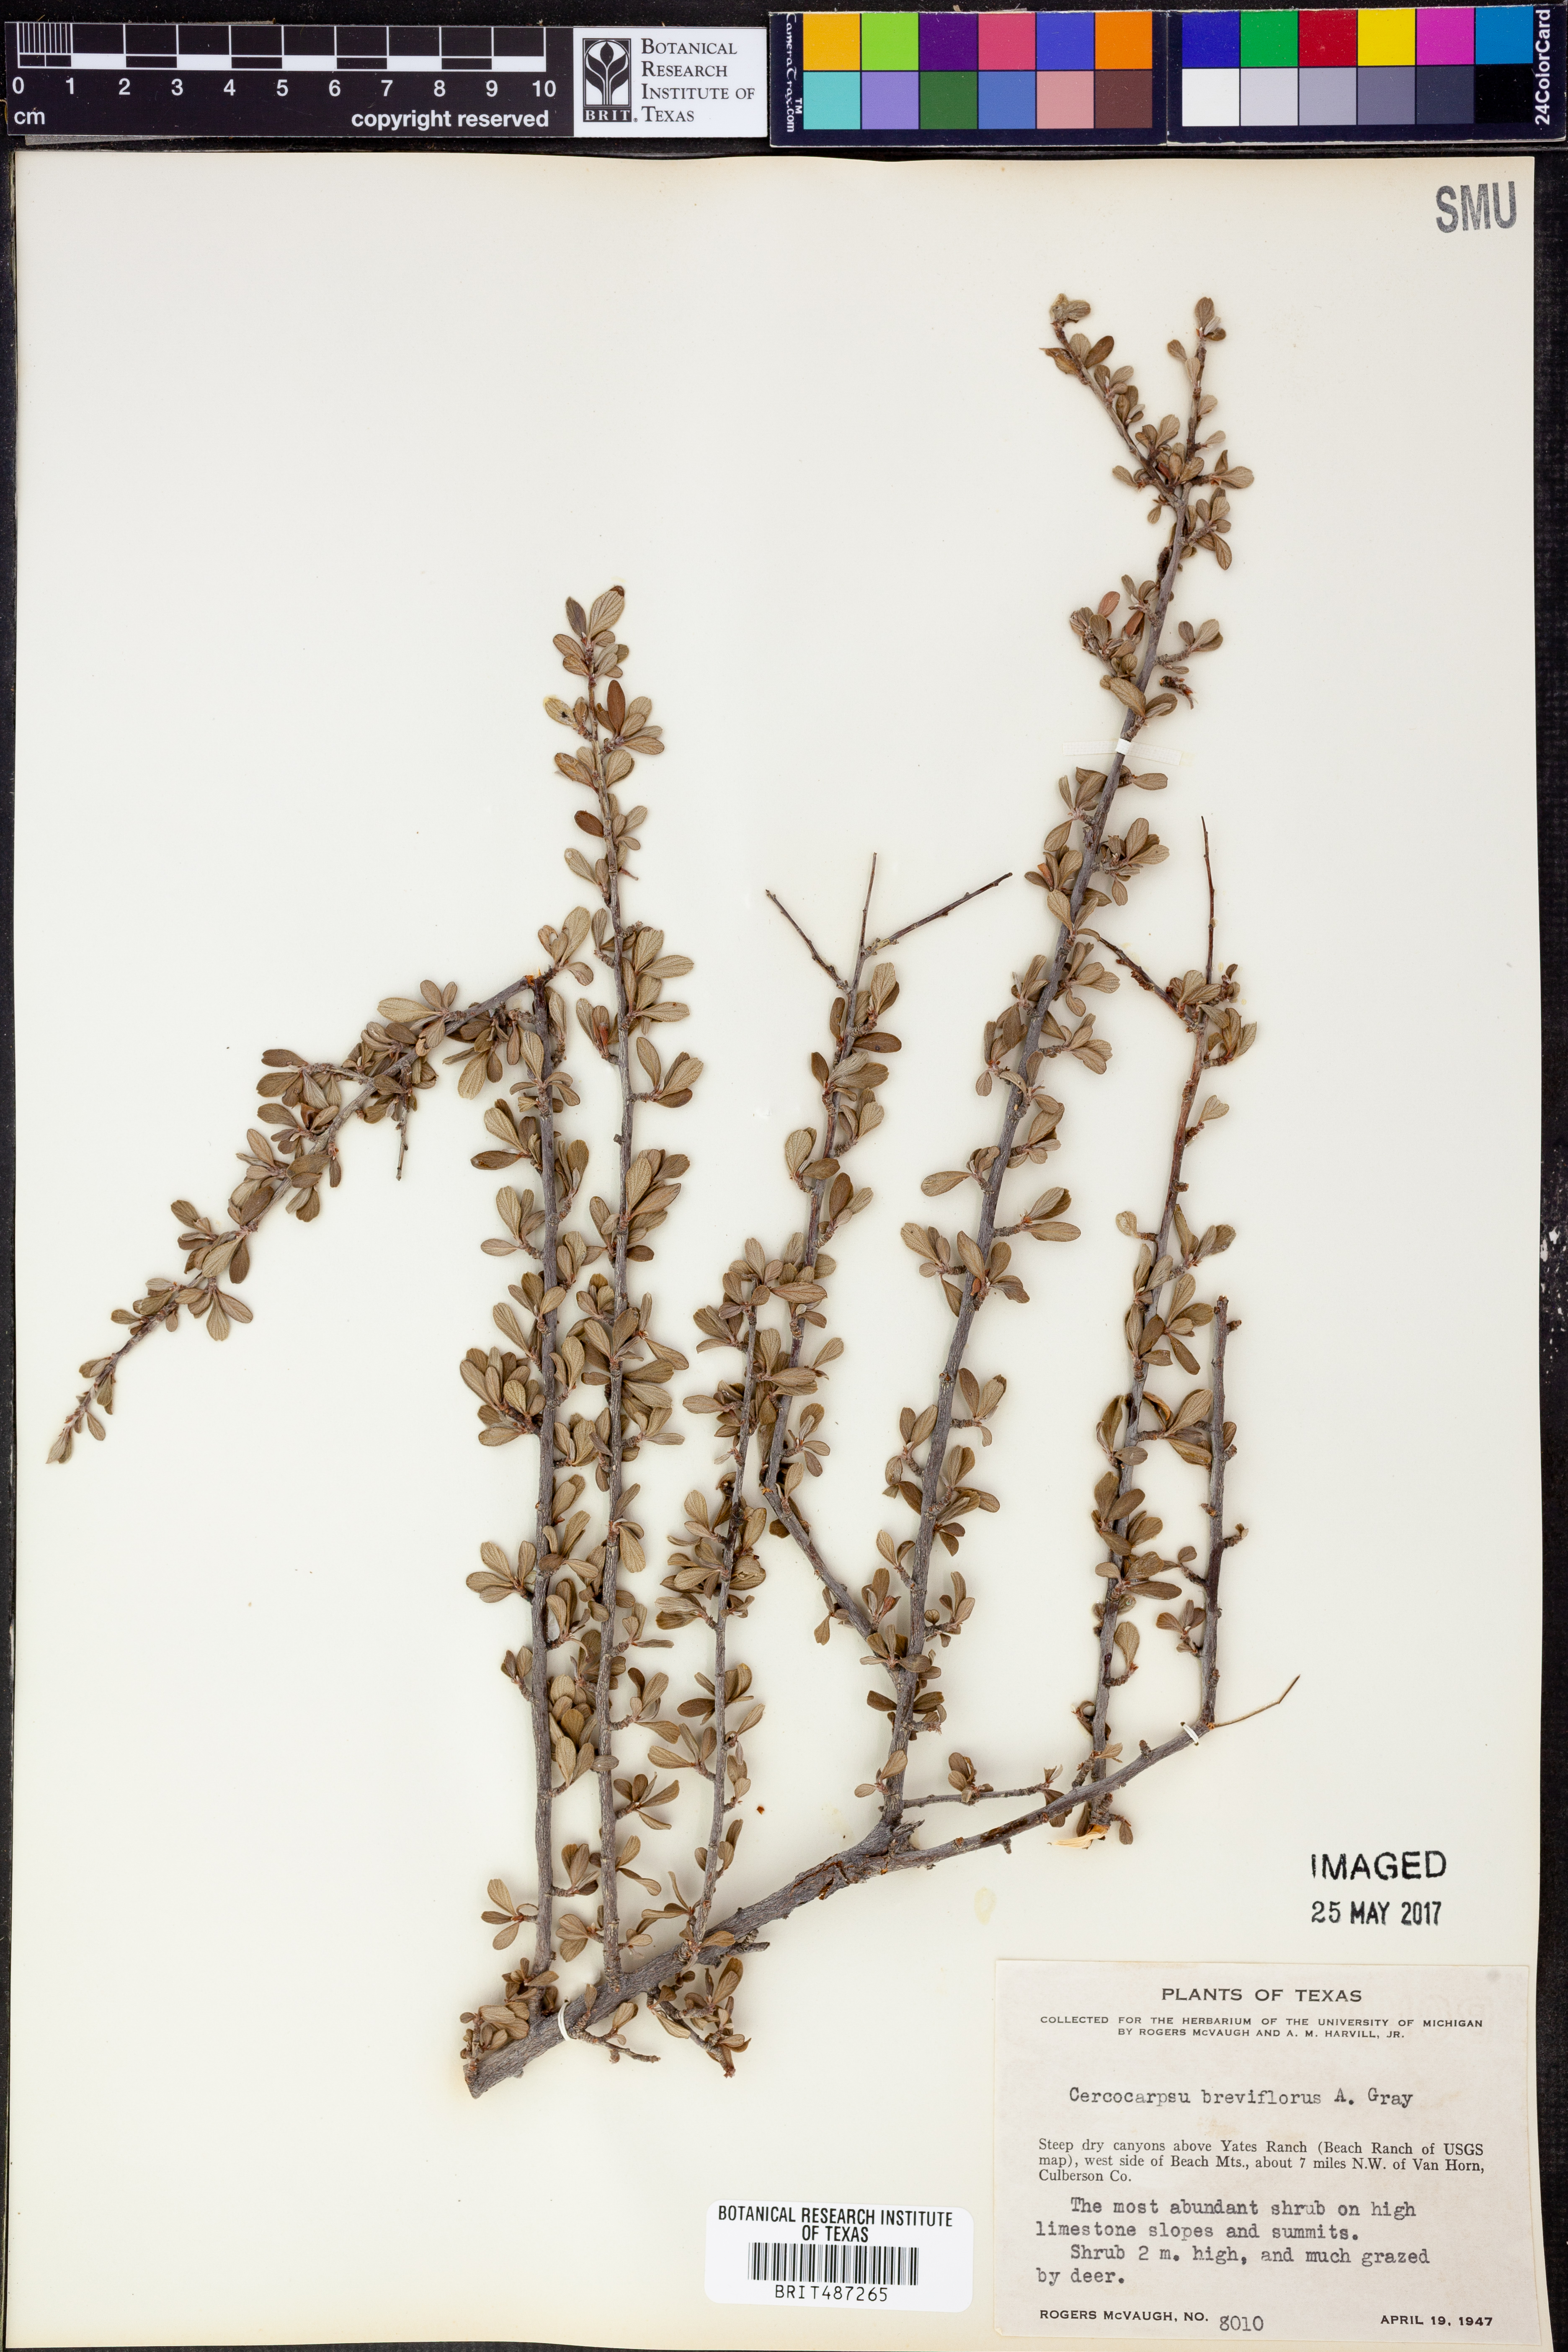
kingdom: Plantae
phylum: Tracheophyta
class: Magnoliopsida
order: Rosales
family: Rosaceae
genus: Cercocarpus
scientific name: Cercocarpus breviflorus
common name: Wright's mountain-mahogany
